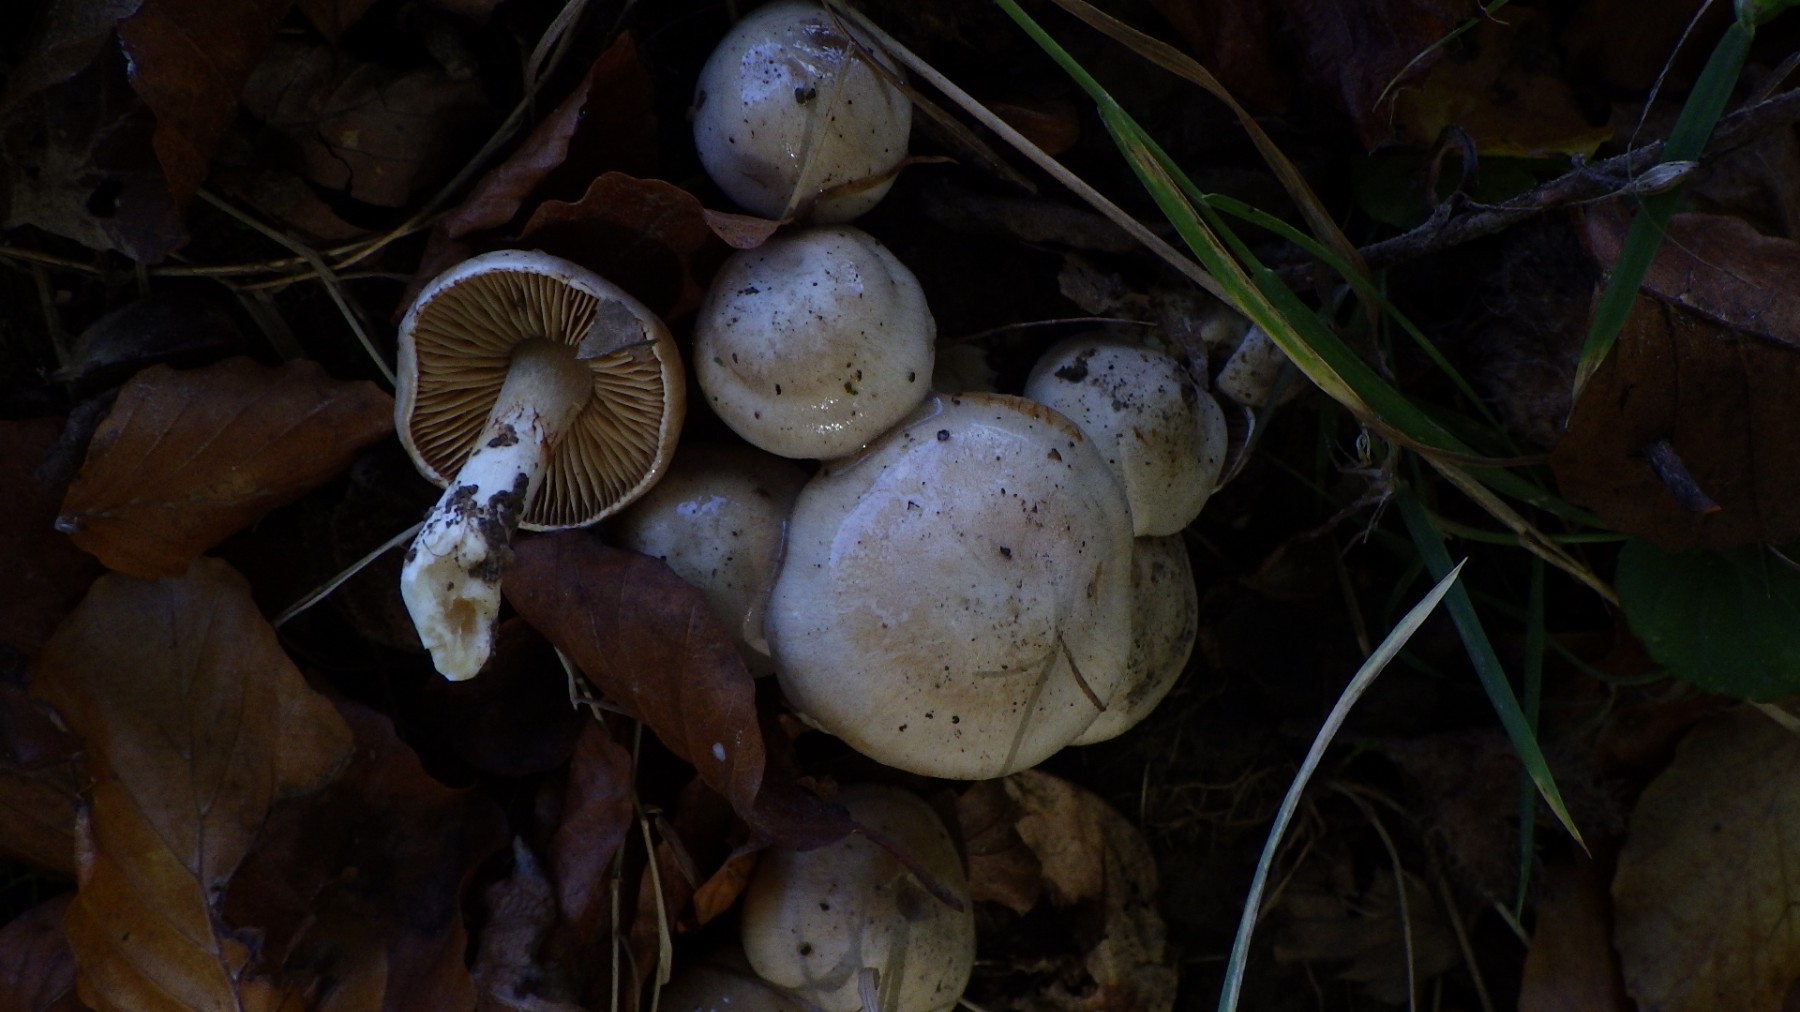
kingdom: Fungi
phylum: Basidiomycota
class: Agaricomycetes
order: Agaricales
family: Cortinariaceae
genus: Thaxterogaster
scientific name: Thaxterogaster
